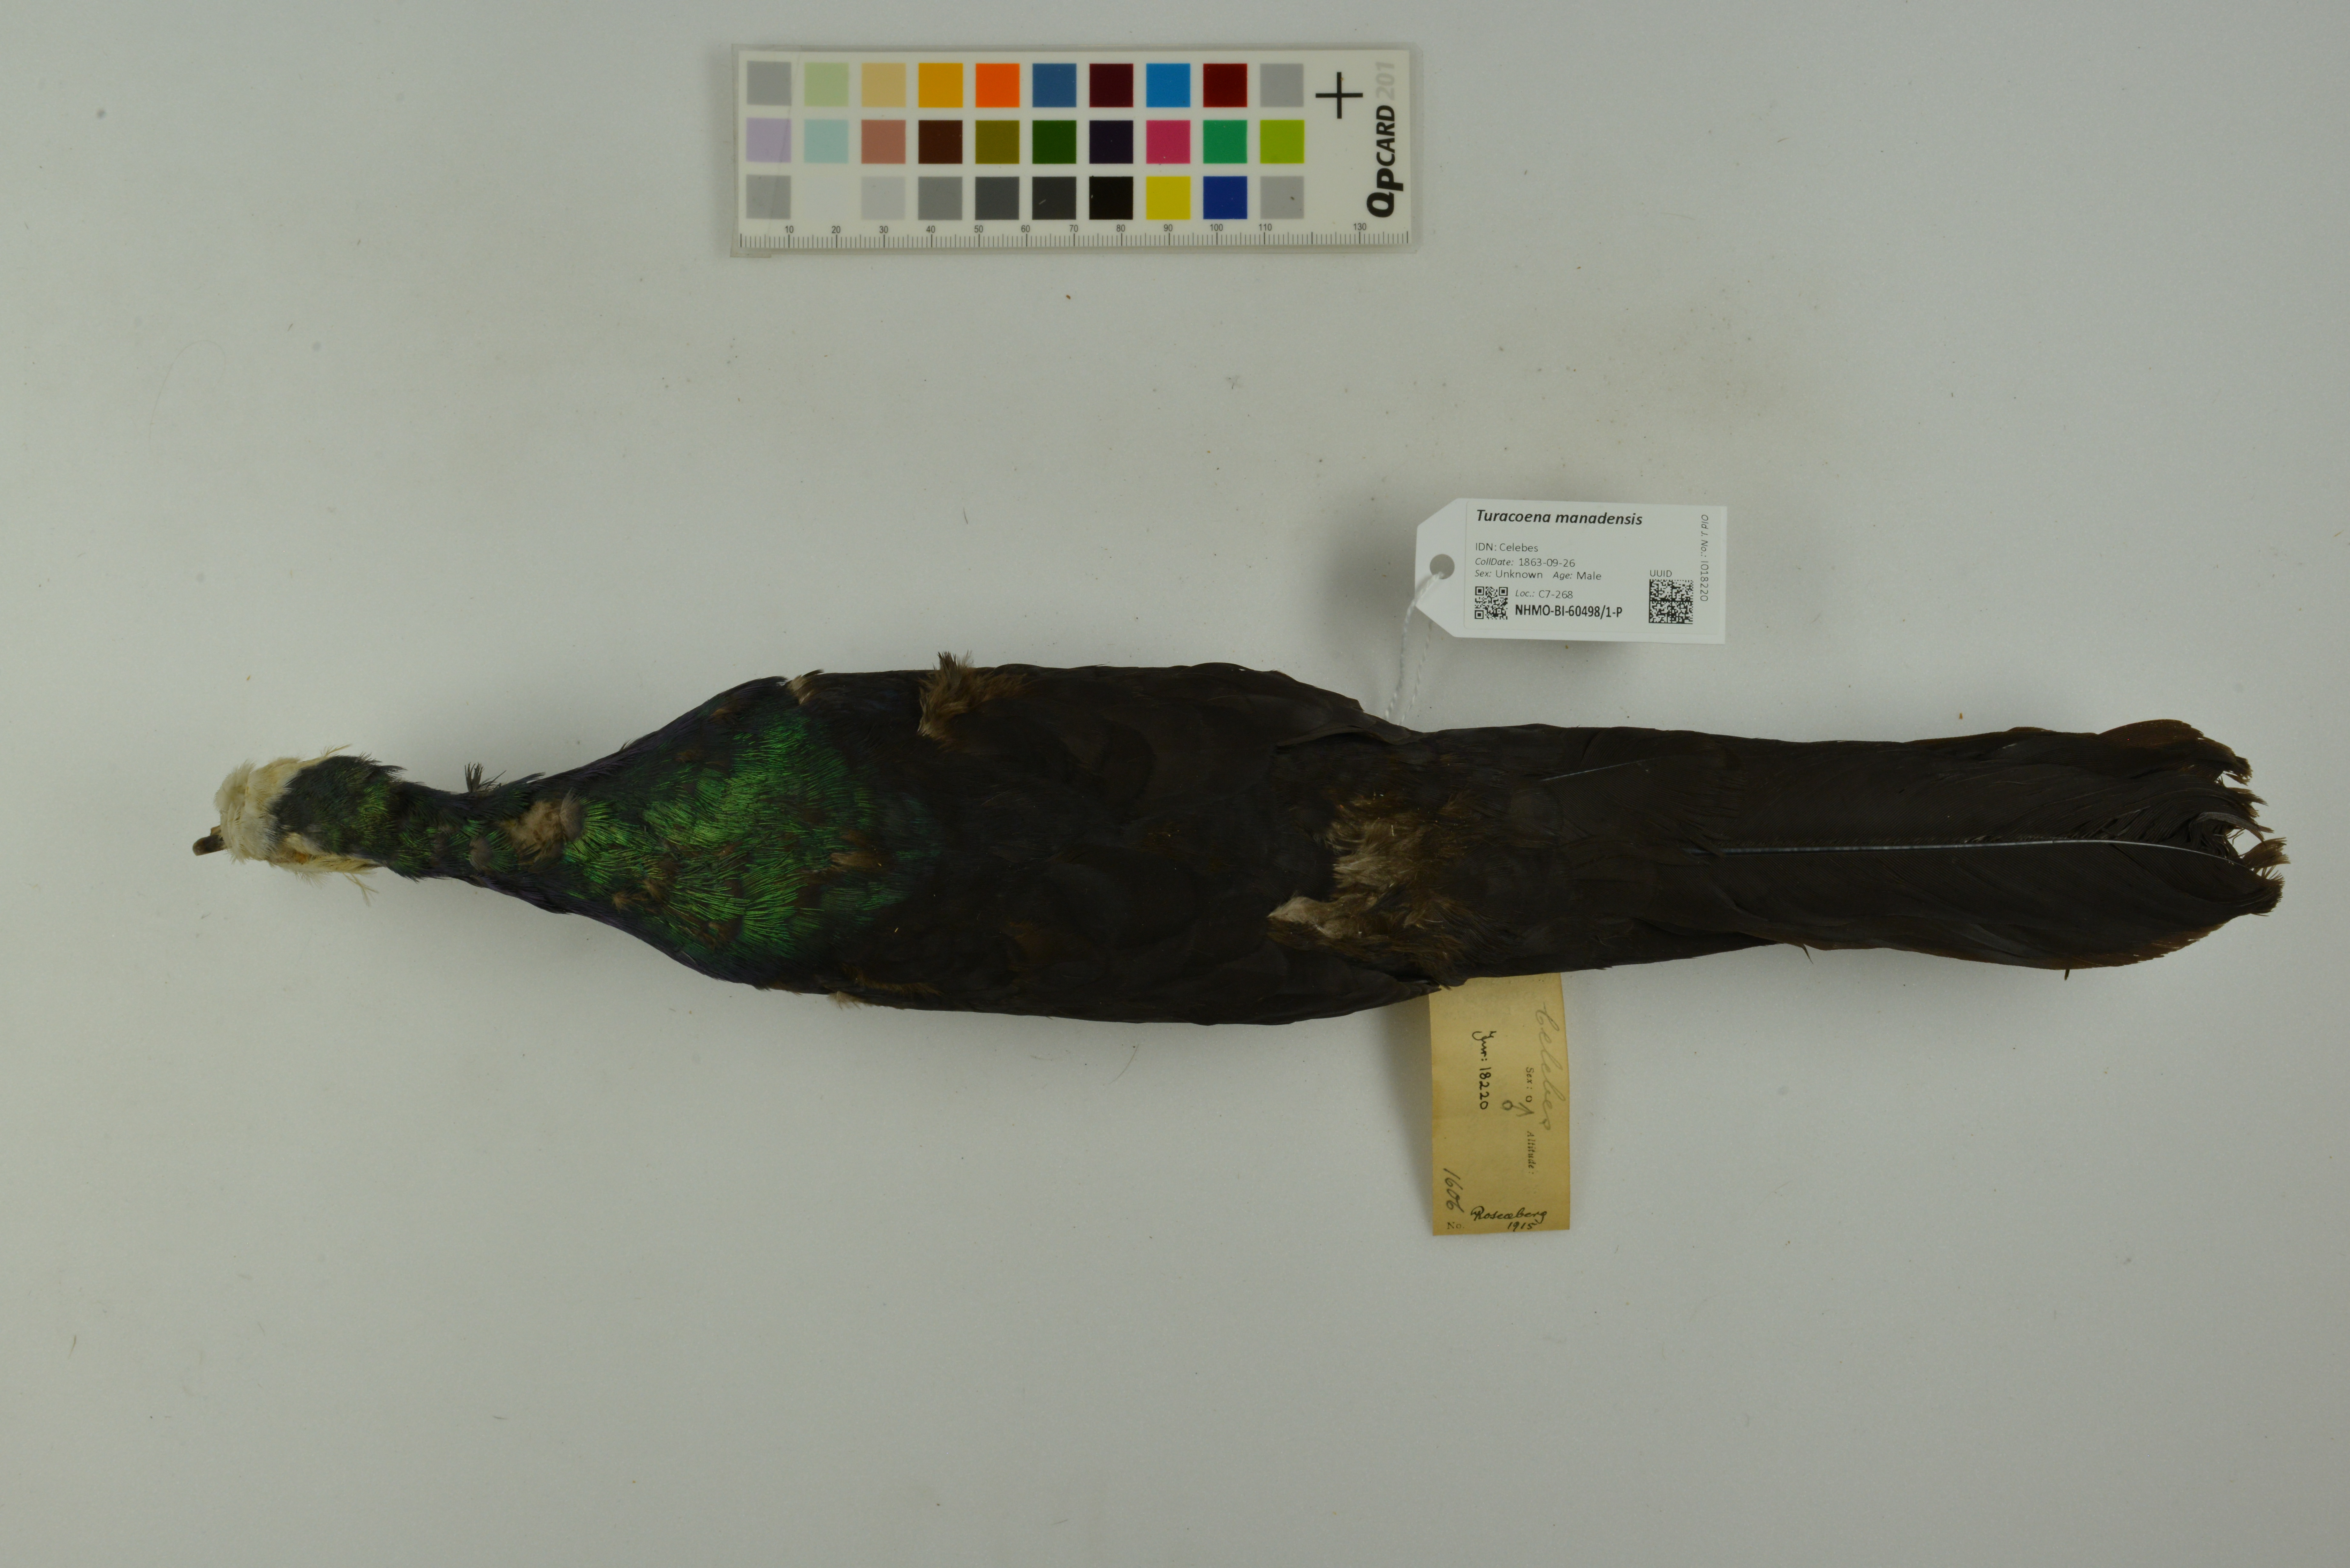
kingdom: Animalia
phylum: Chordata
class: Aves
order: Columbiformes
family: Columbidae
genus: Turacoena
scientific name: Turacoena manadensis
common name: White-faced cuckoo-dove
